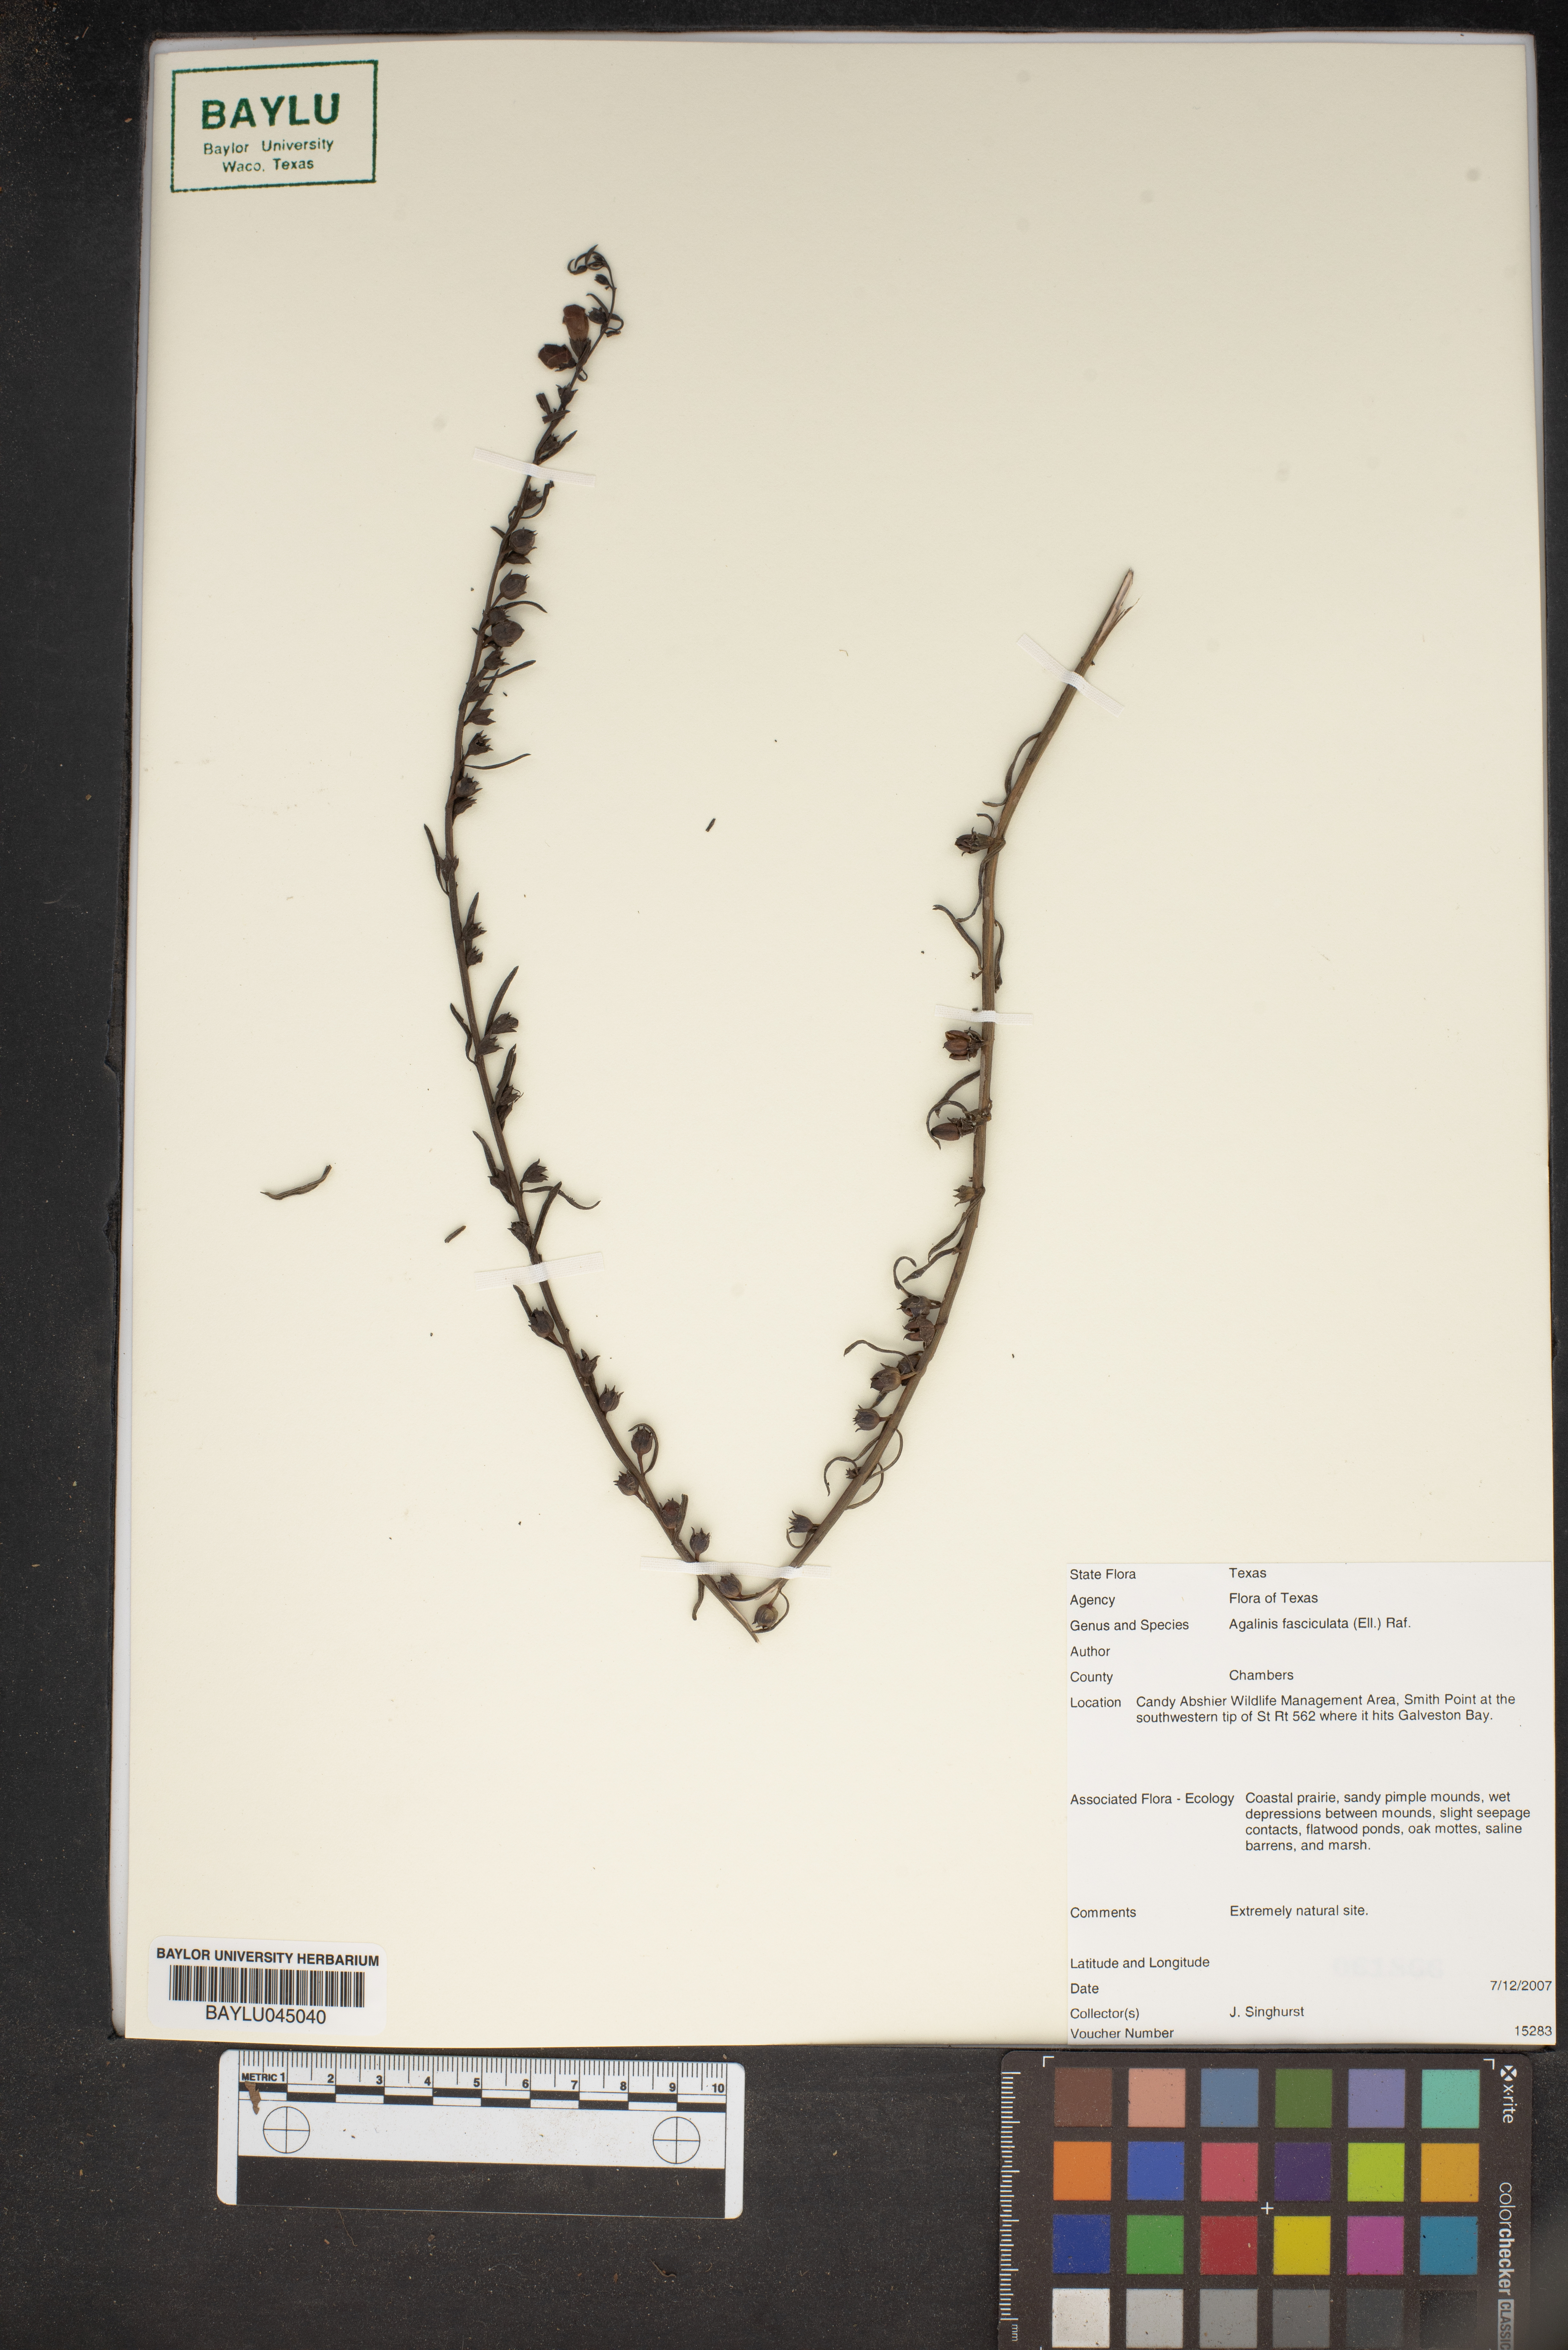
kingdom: Plantae
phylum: Tracheophyta
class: Magnoliopsida
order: Lamiales
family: Orobanchaceae
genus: Agalinis
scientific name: Agalinis fasciculata
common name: Beach false foxglove
